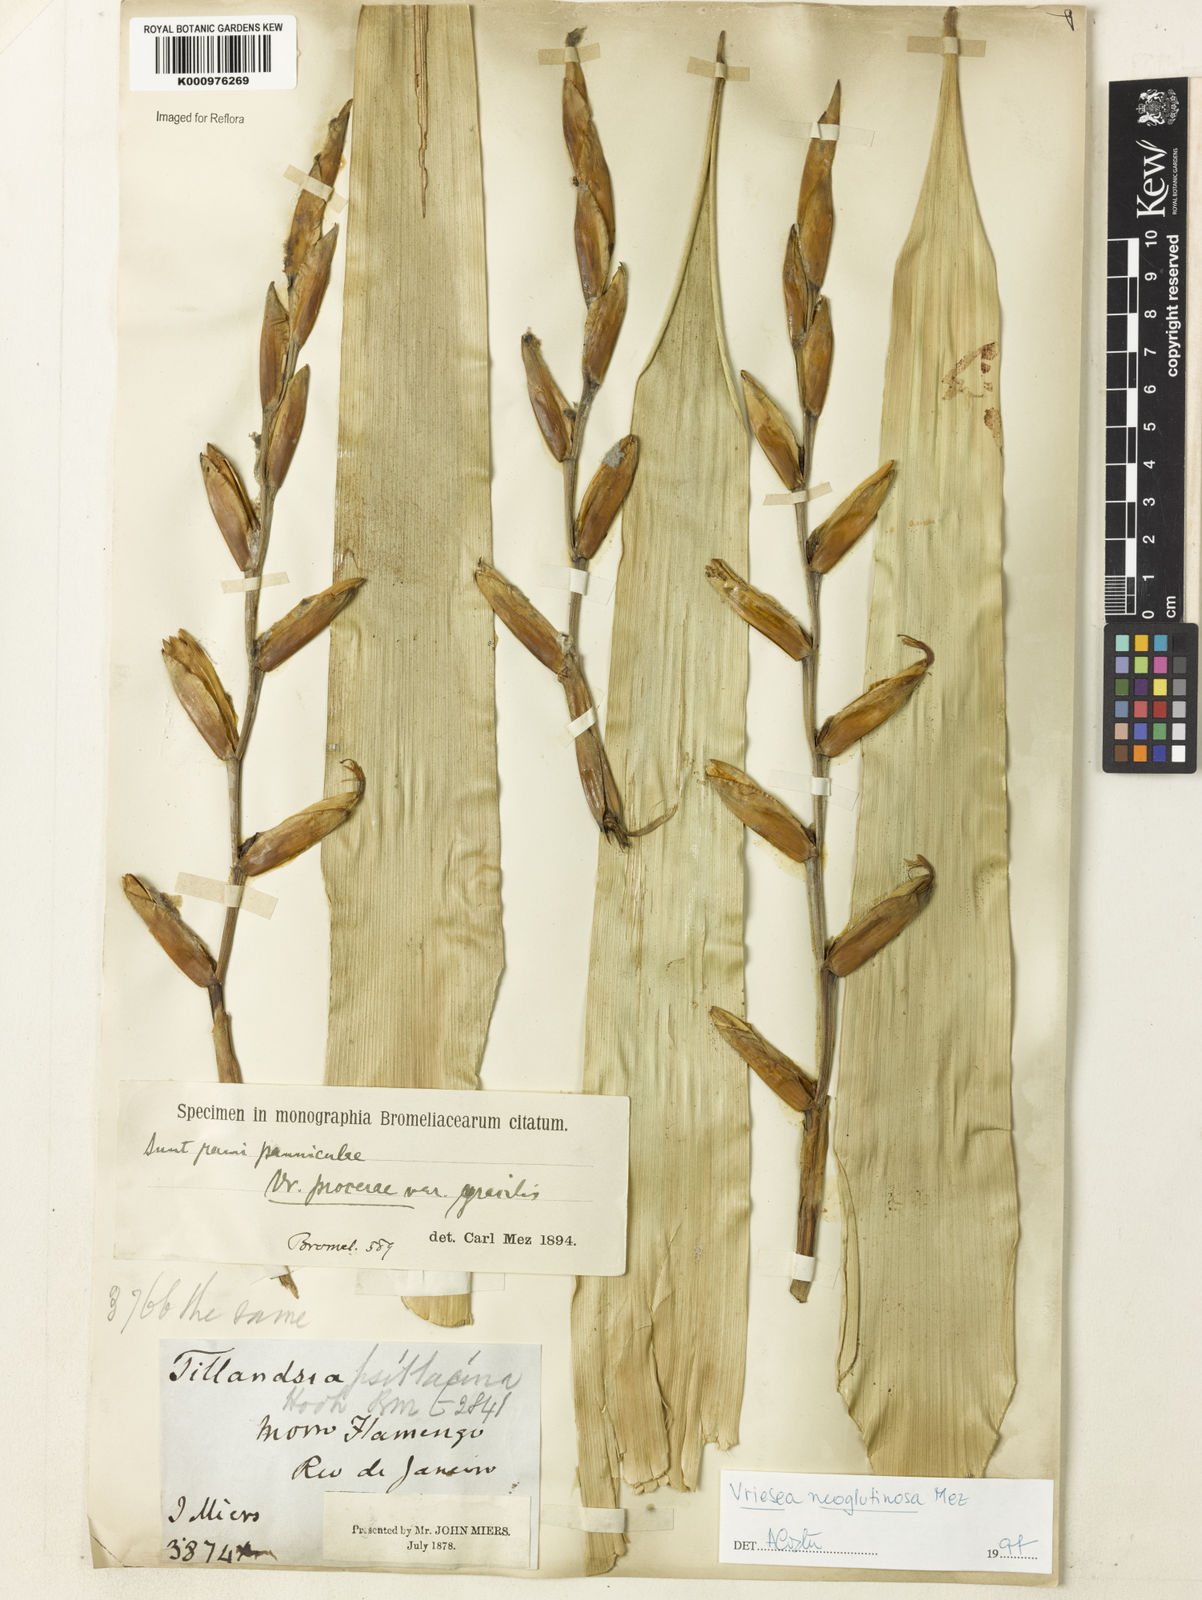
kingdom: Plantae
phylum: Tracheophyta
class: Liliopsida
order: Poales
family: Bromeliaceae
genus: Vriesea
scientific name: Vriesea procera
